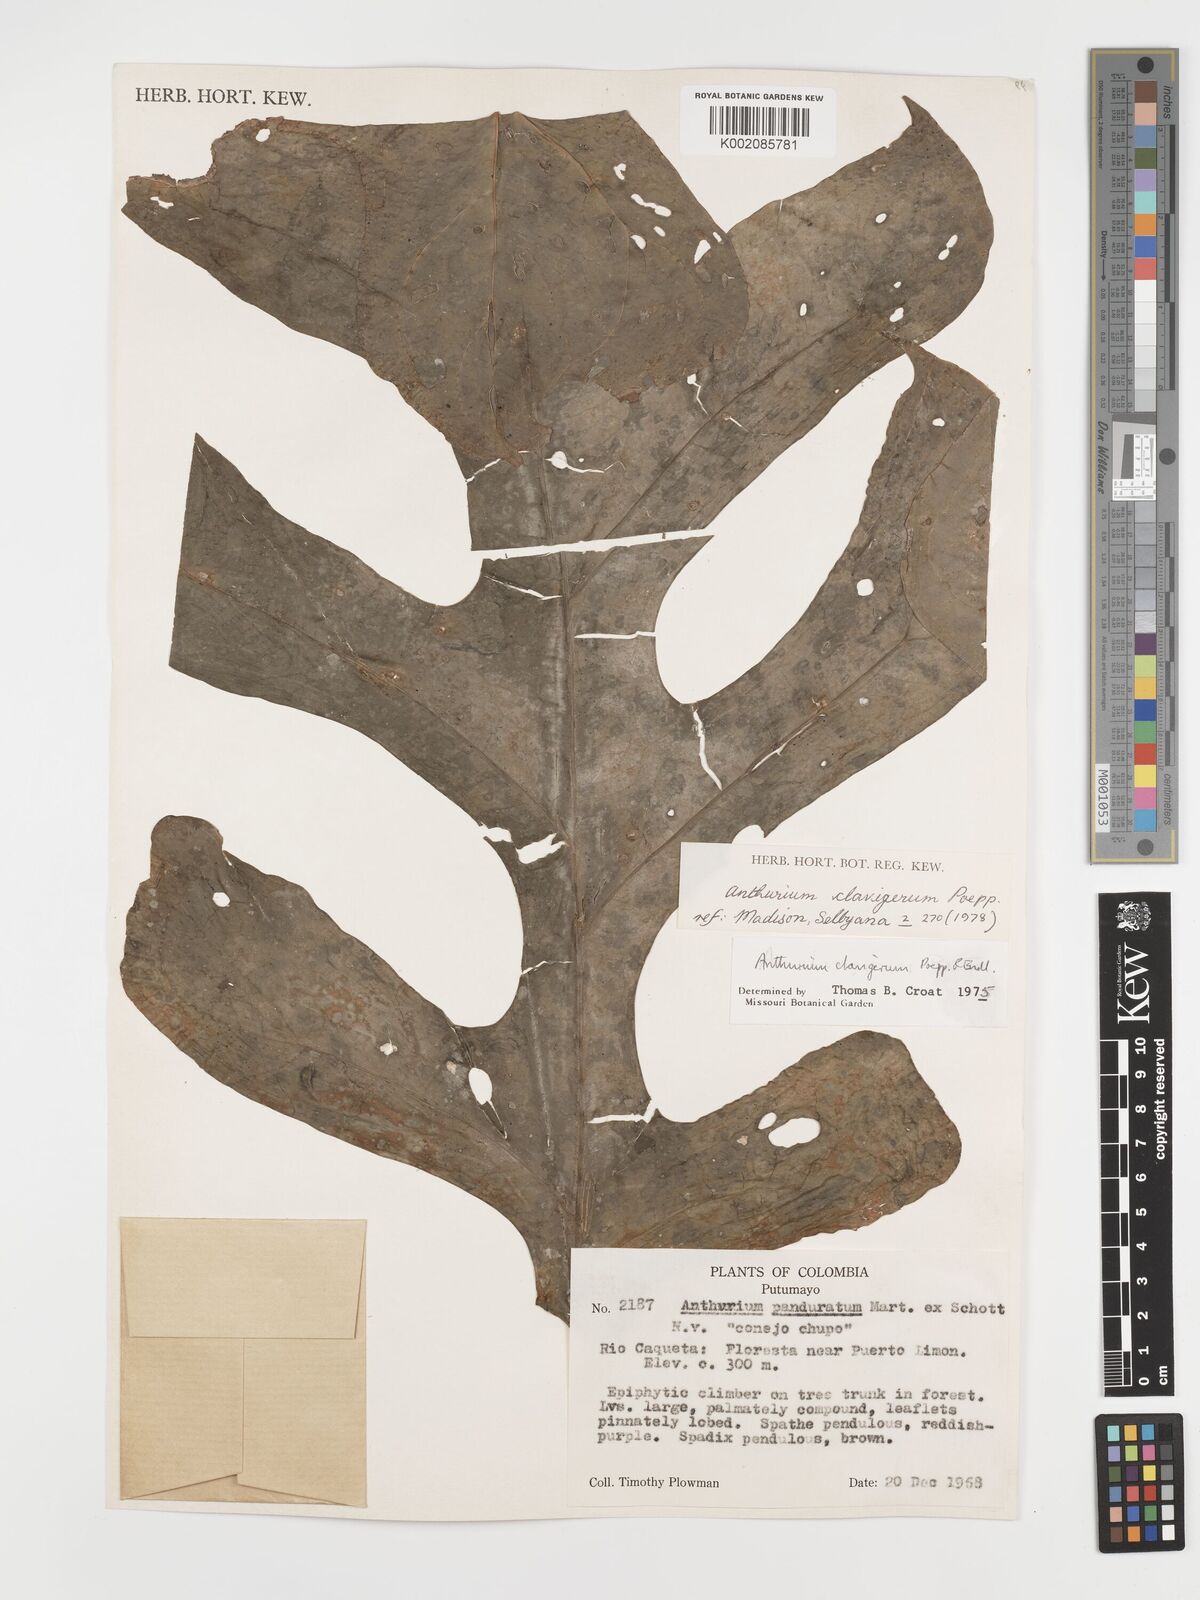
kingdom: Plantae
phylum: Tracheophyta
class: Liliopsida
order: Alismatales
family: Araceae
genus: Anthurium
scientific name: Anthurium clavigerum
